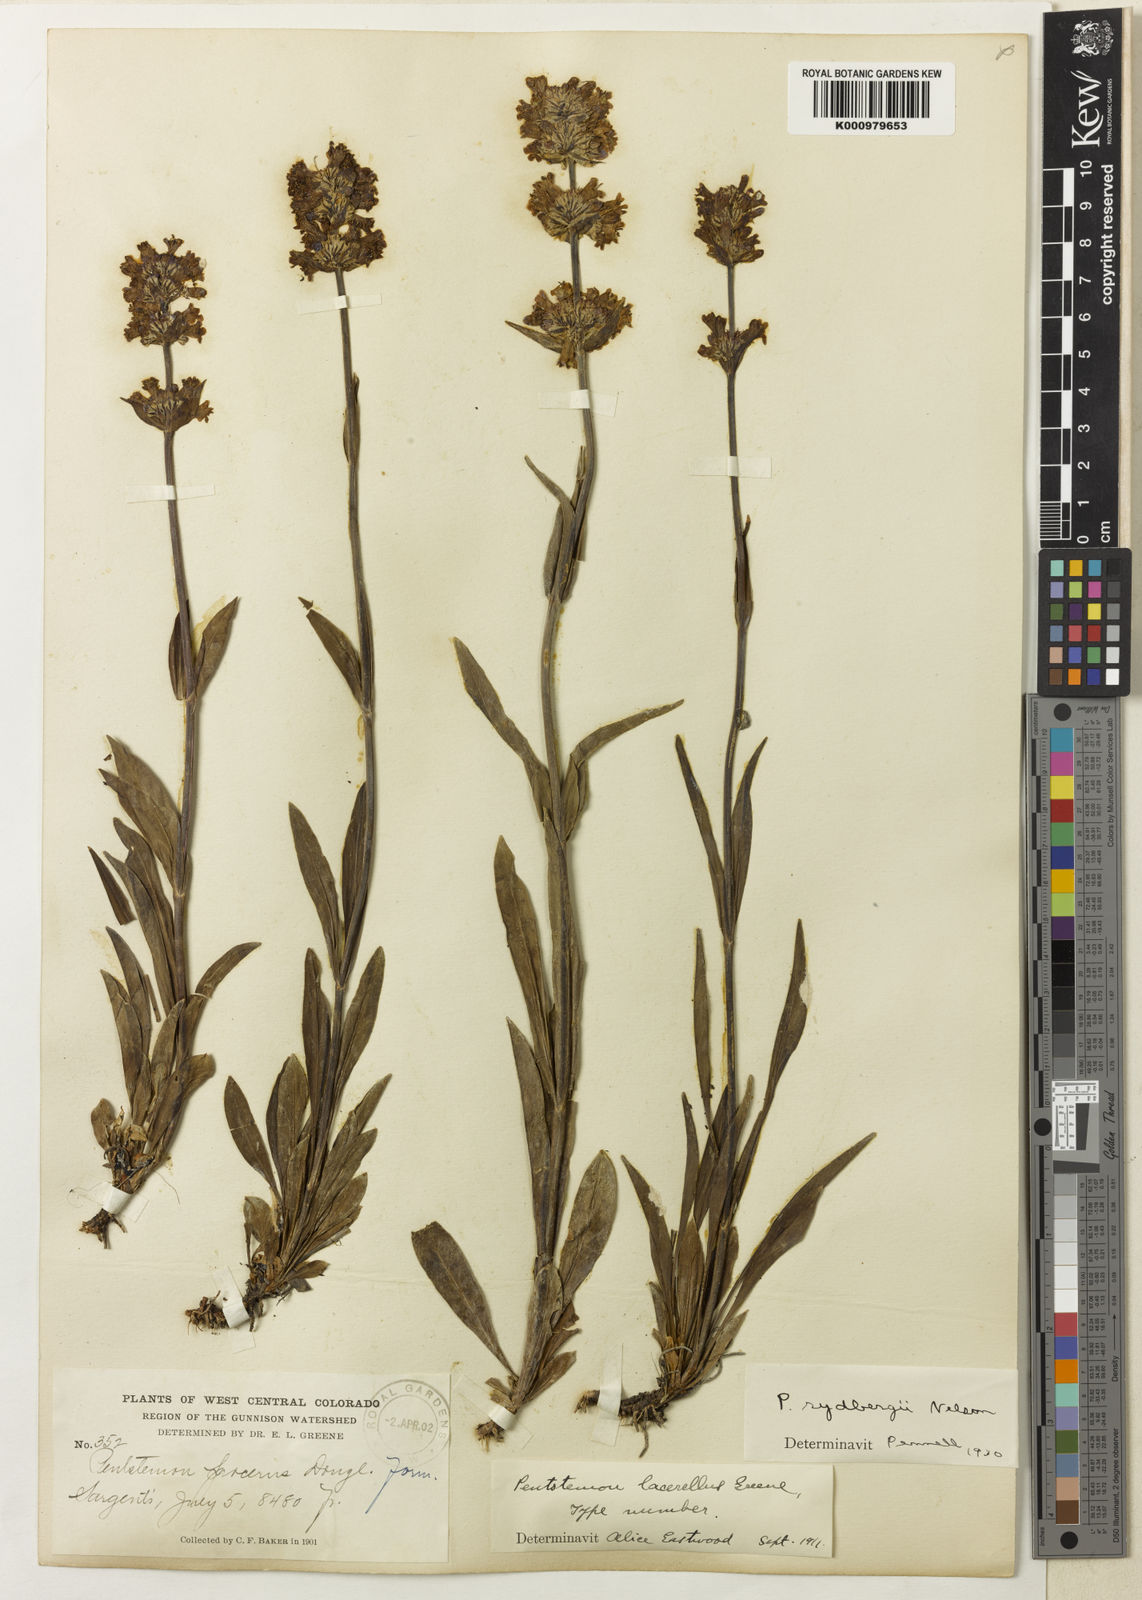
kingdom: Plantae
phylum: Tracheophyta
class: Magnoliopsida
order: Lamiales
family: Plantaginaceae
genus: Penstemon
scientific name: Penstemon rydbergii
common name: Rydberg's beardtongue
